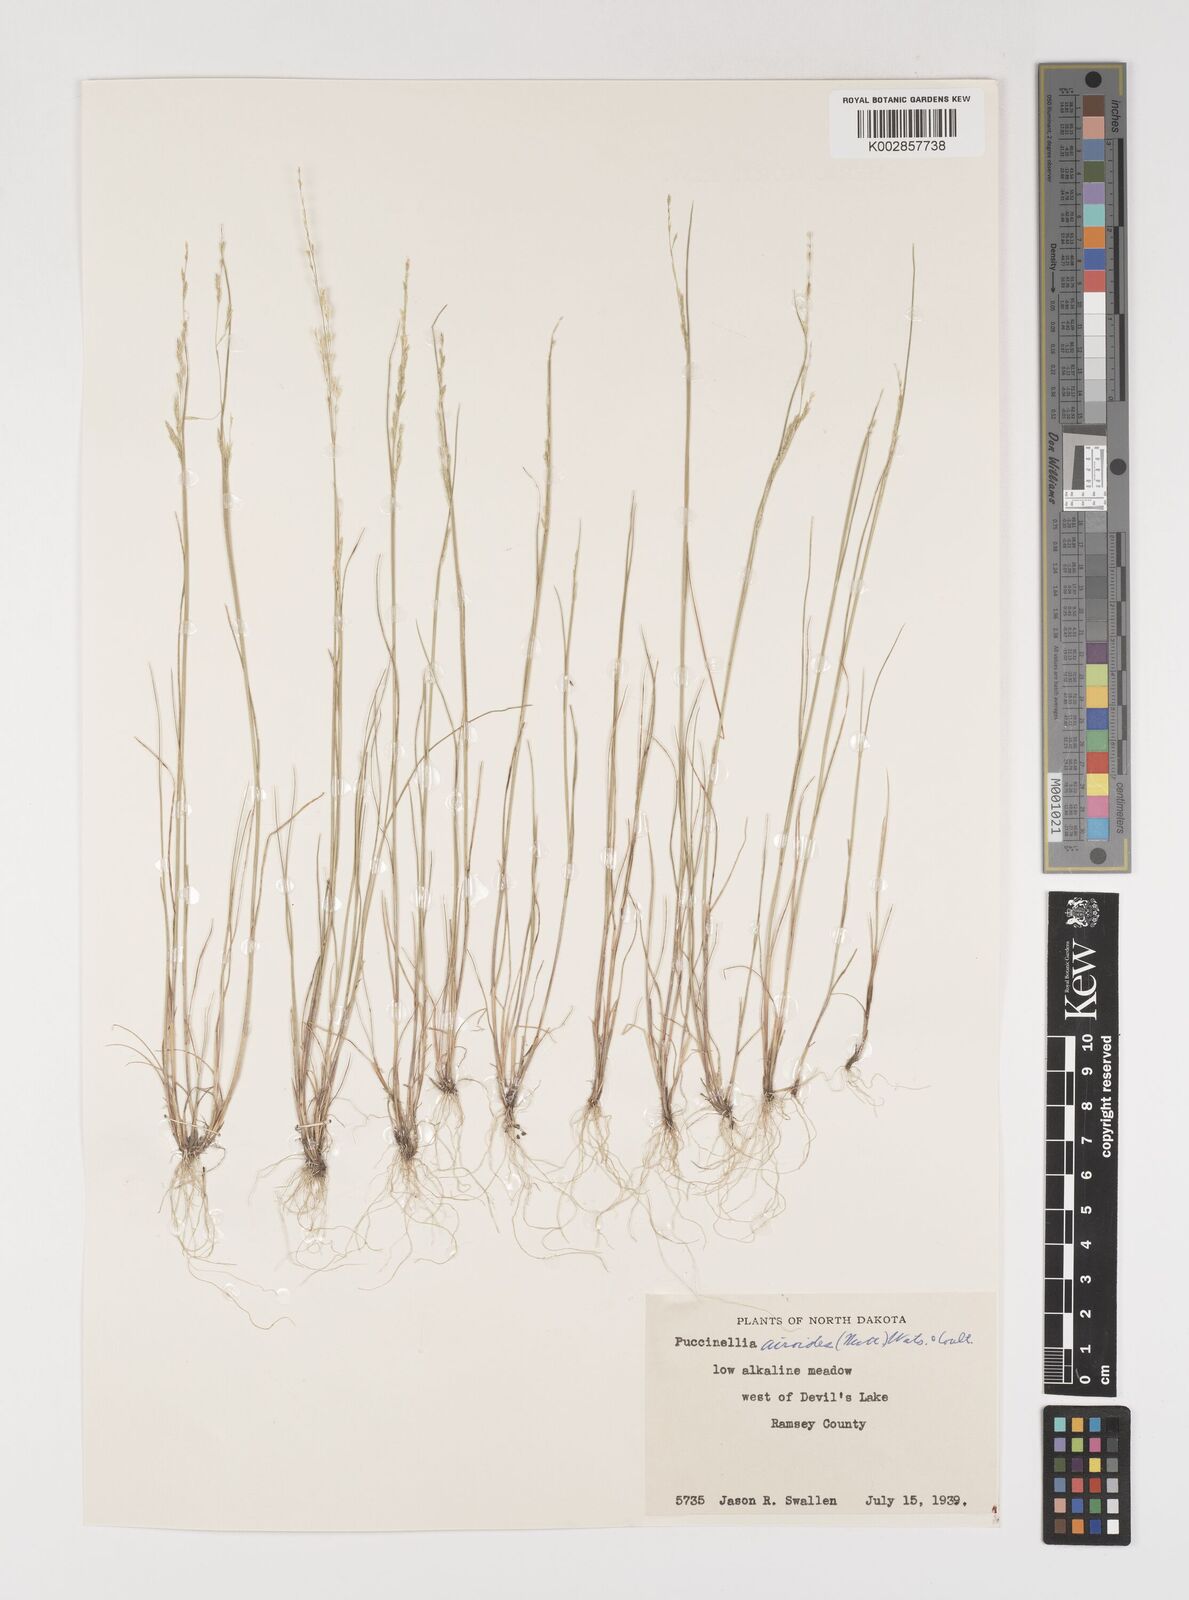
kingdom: Plantae
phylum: Tracheophyta
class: Liliopsida
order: Poales
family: Poaceae
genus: Puccinellia
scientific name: Puccinellia nuttalliana
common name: Nuttall's alkali grass
